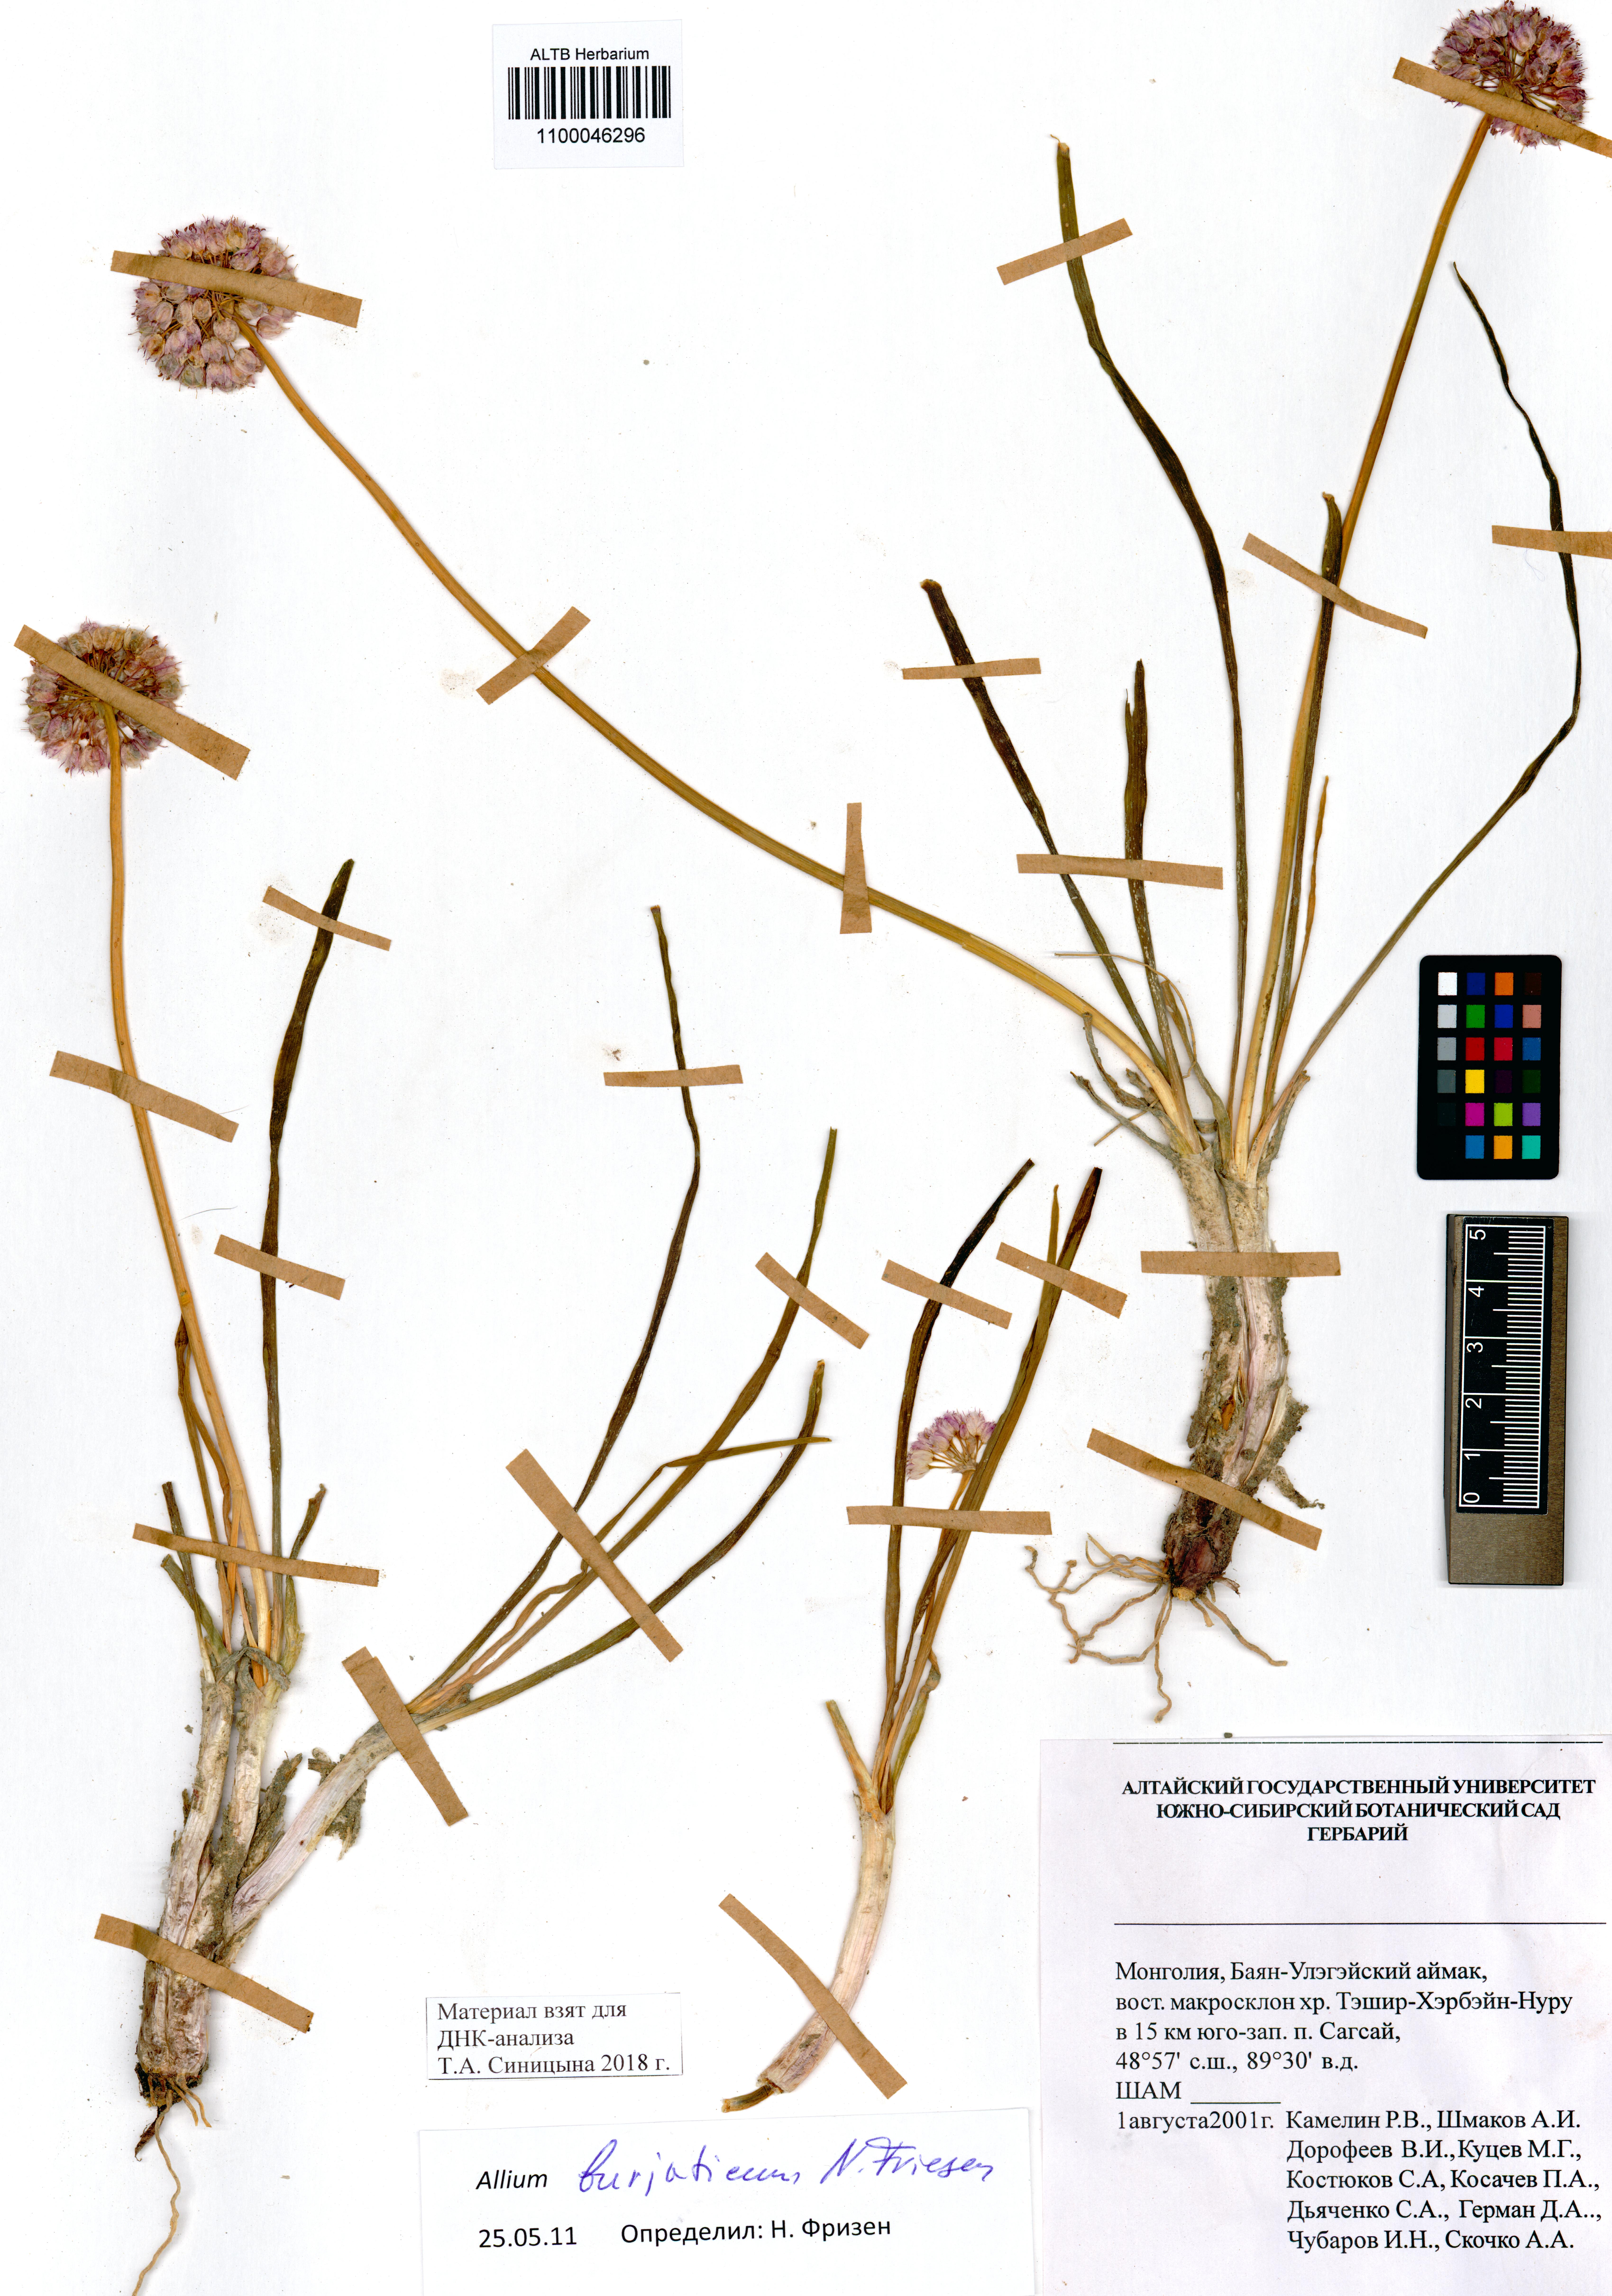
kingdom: Plantae
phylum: Tracheophyta
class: Liliopsida
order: Asparagales
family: Amaryllidaceae
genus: Allium
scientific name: Allium burjaticum
